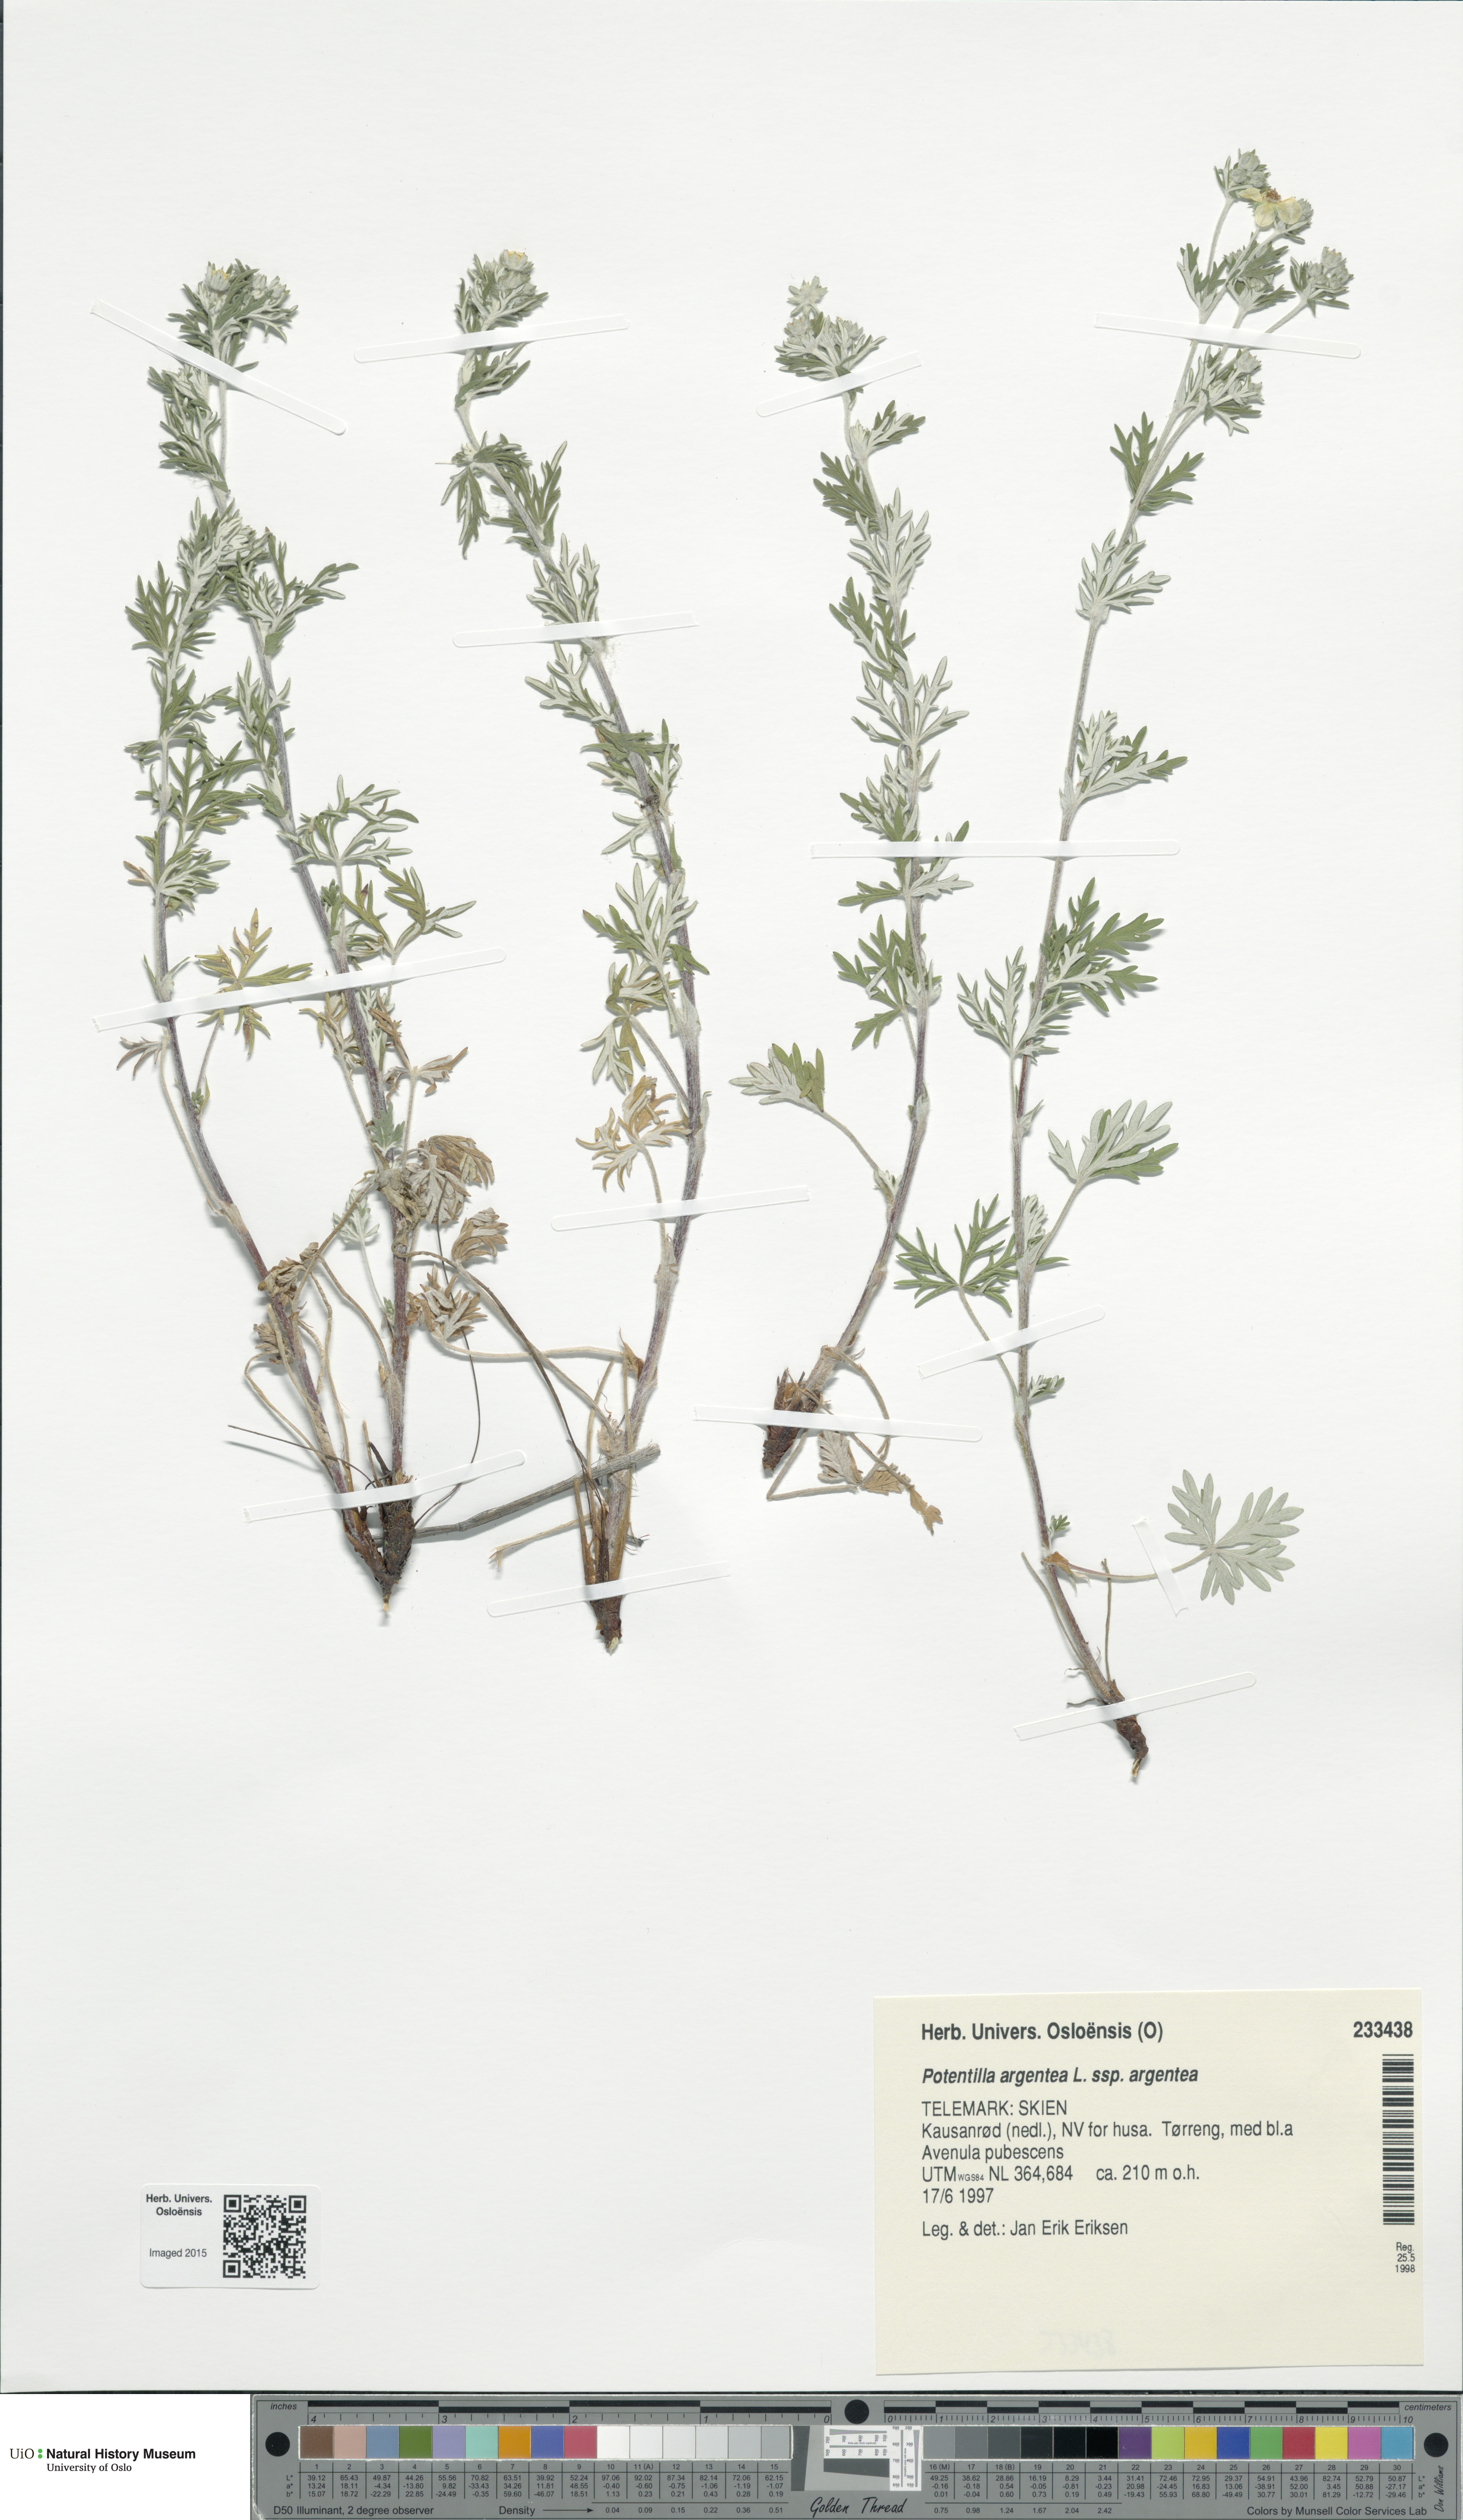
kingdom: Plantae
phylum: Tracheophyta
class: Magnoliopsida
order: Rosales
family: Rosaceae
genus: Potentilla
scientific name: Potentilla argentea
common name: Hoary cinquefoil
